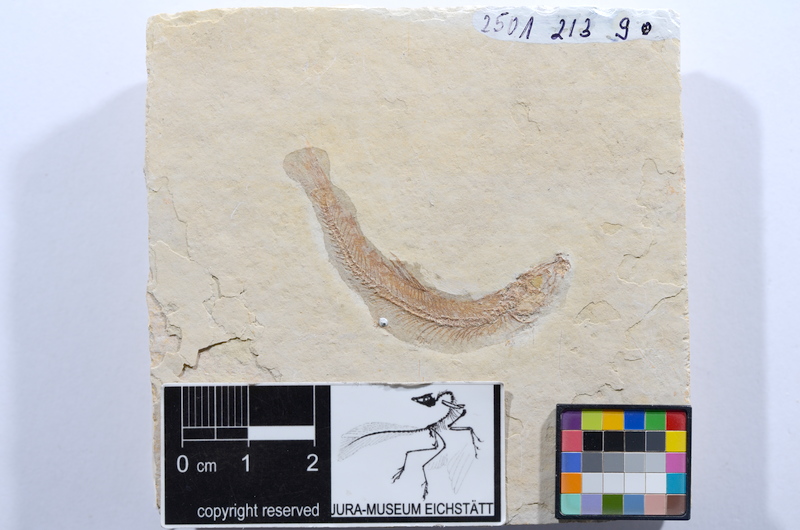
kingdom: Animalia
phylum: Chordata
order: Salmoniformes
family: Orthogonikleithridae
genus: Leptolepides
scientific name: Leptolepides sprattiformis
